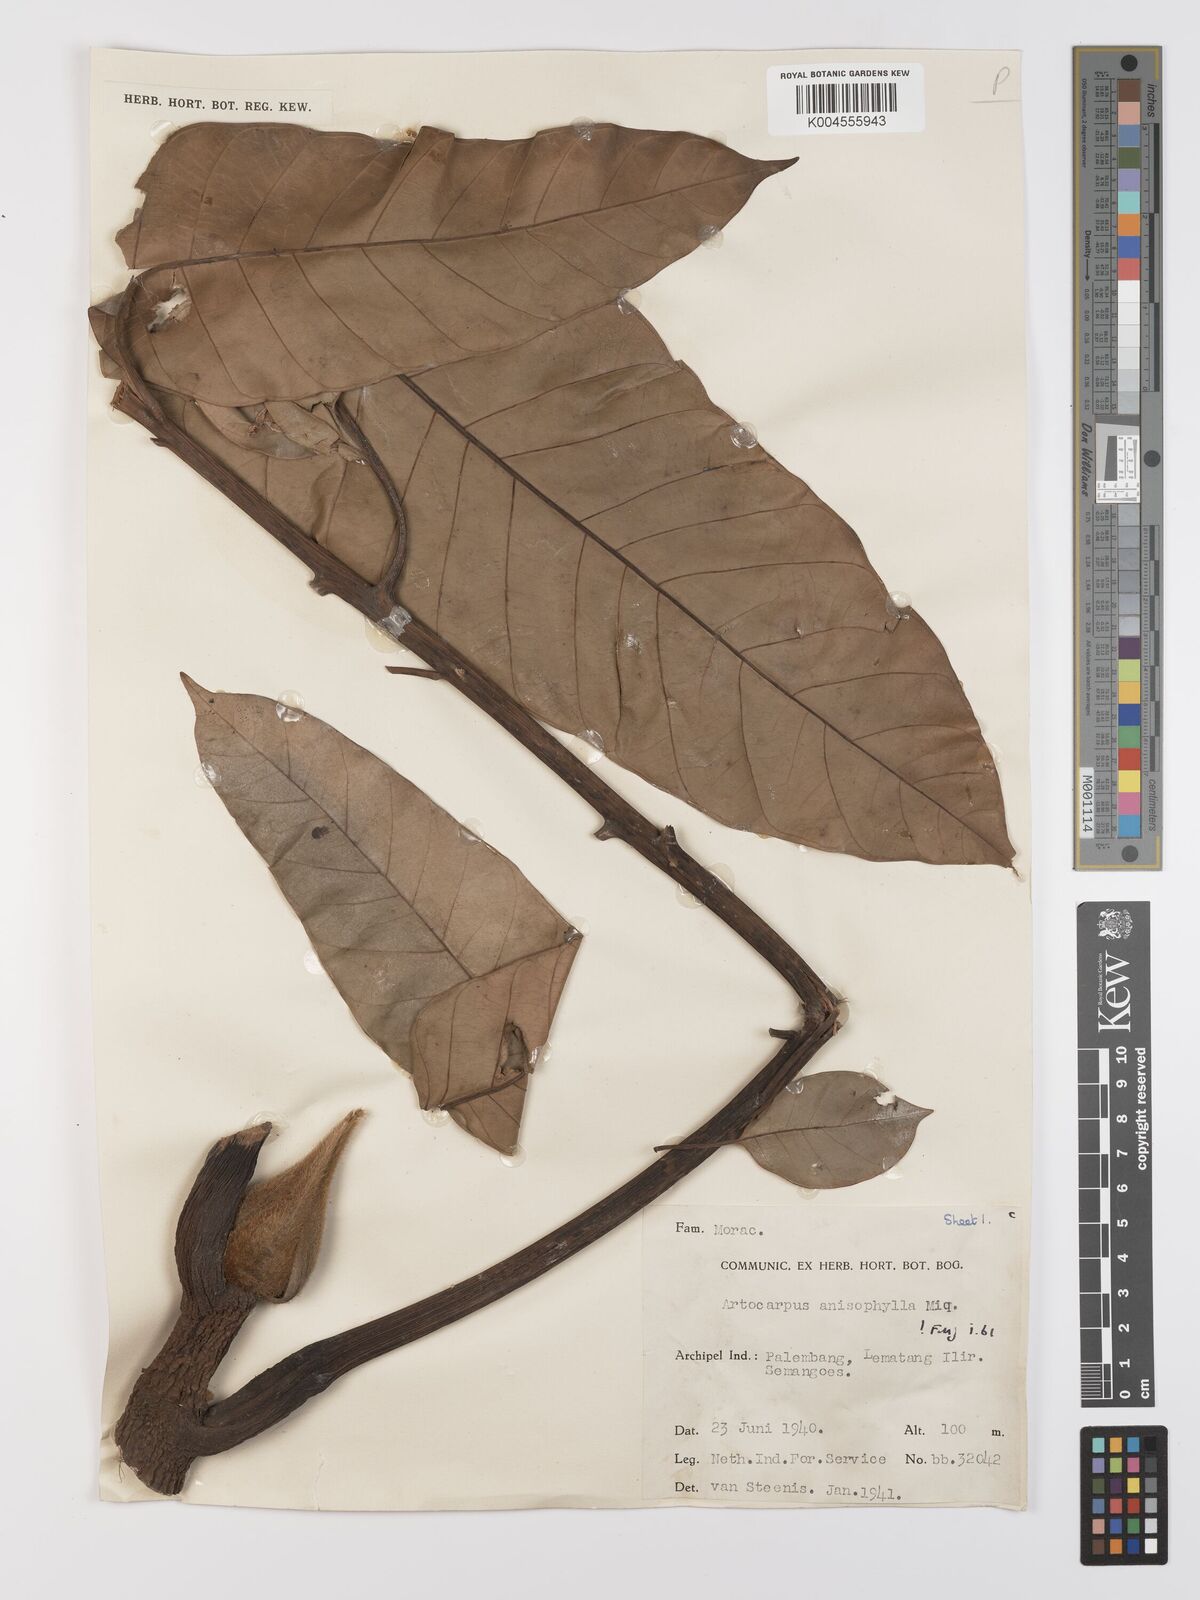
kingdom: Plantae
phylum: Tracheophyta
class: Magnoliopsida
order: Rosales
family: Moraceae
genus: Artocarpus
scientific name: Artocarpus anisophyllus
